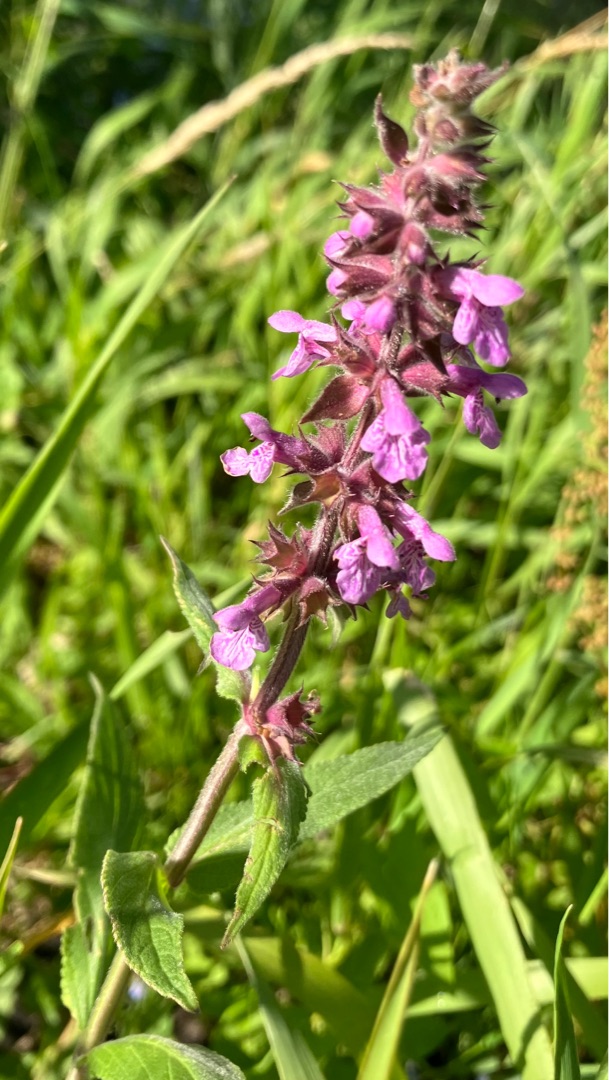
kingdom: Plantae
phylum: Tracheophyta
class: Magnoliopsida
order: Lamiales
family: Lamiaceae
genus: Stachys
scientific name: Stachys palustris
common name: Kær-galtetand
